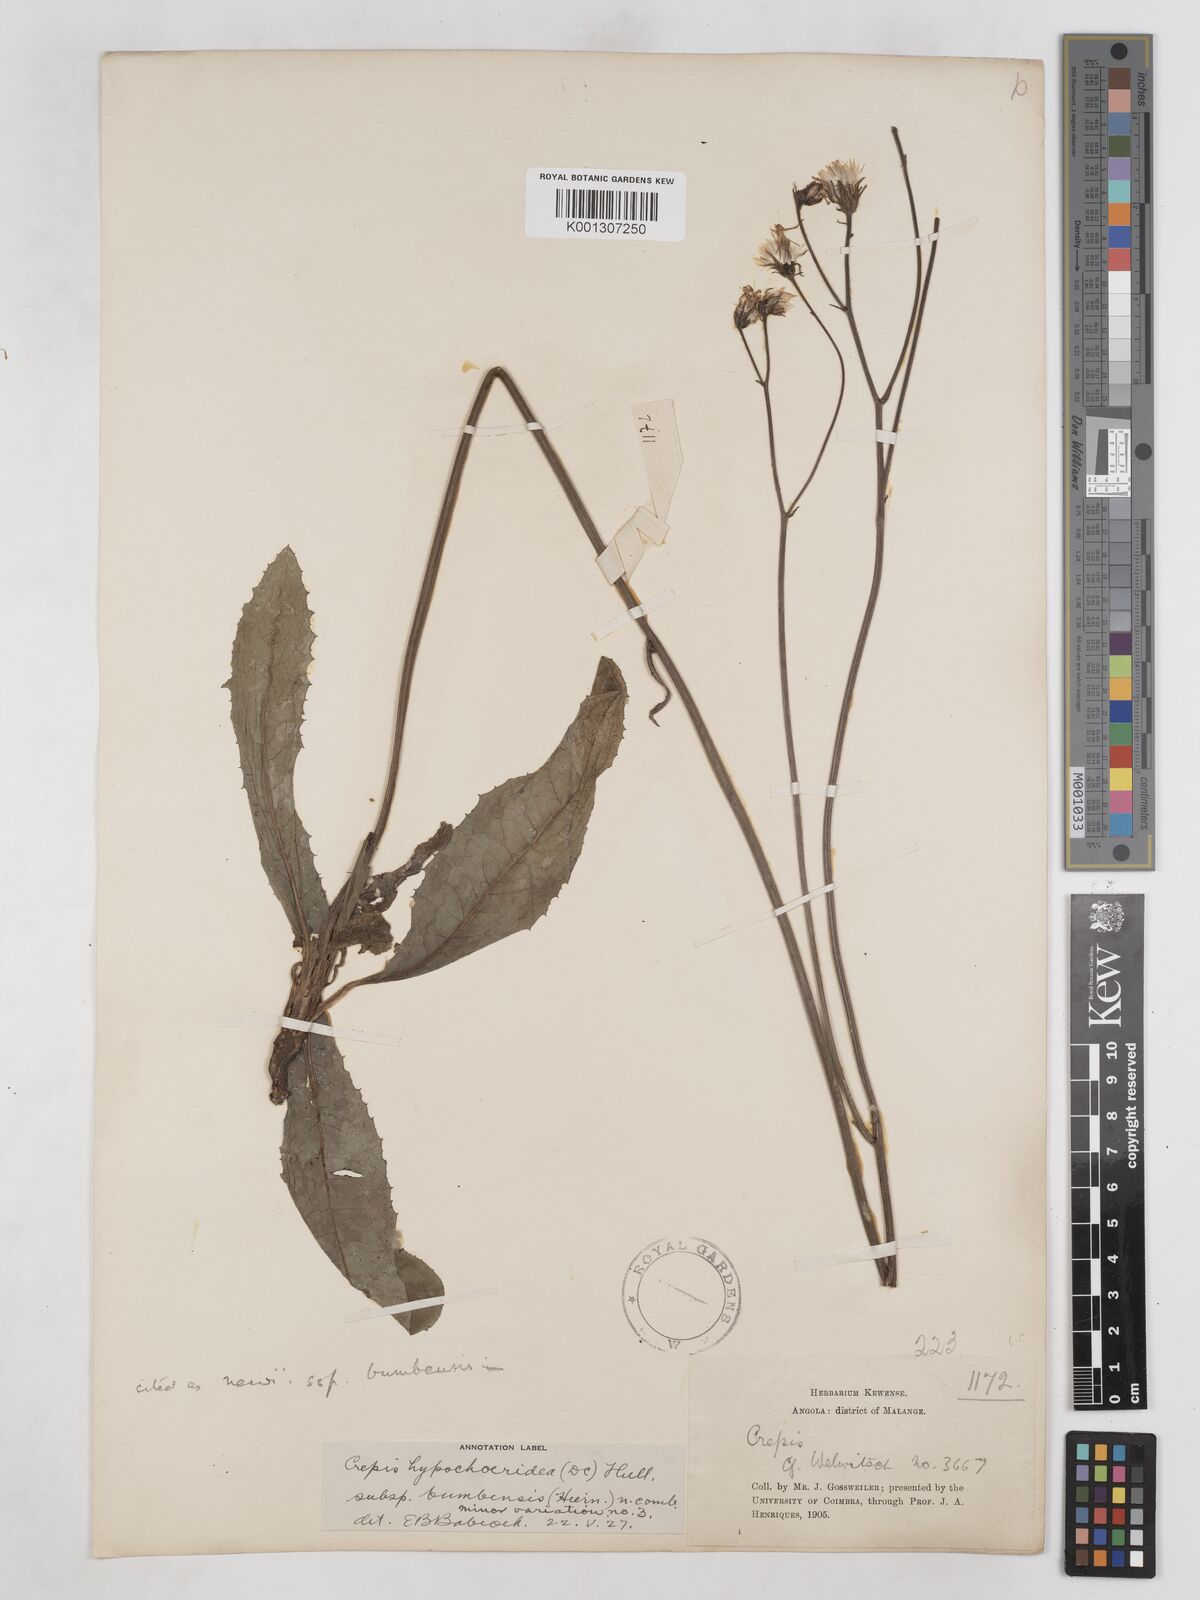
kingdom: Plantae
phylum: Tracheophyta
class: Magnoliopsida
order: Asterales
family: Asteraceae
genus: Crepis
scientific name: Crepis hypochoeridea
